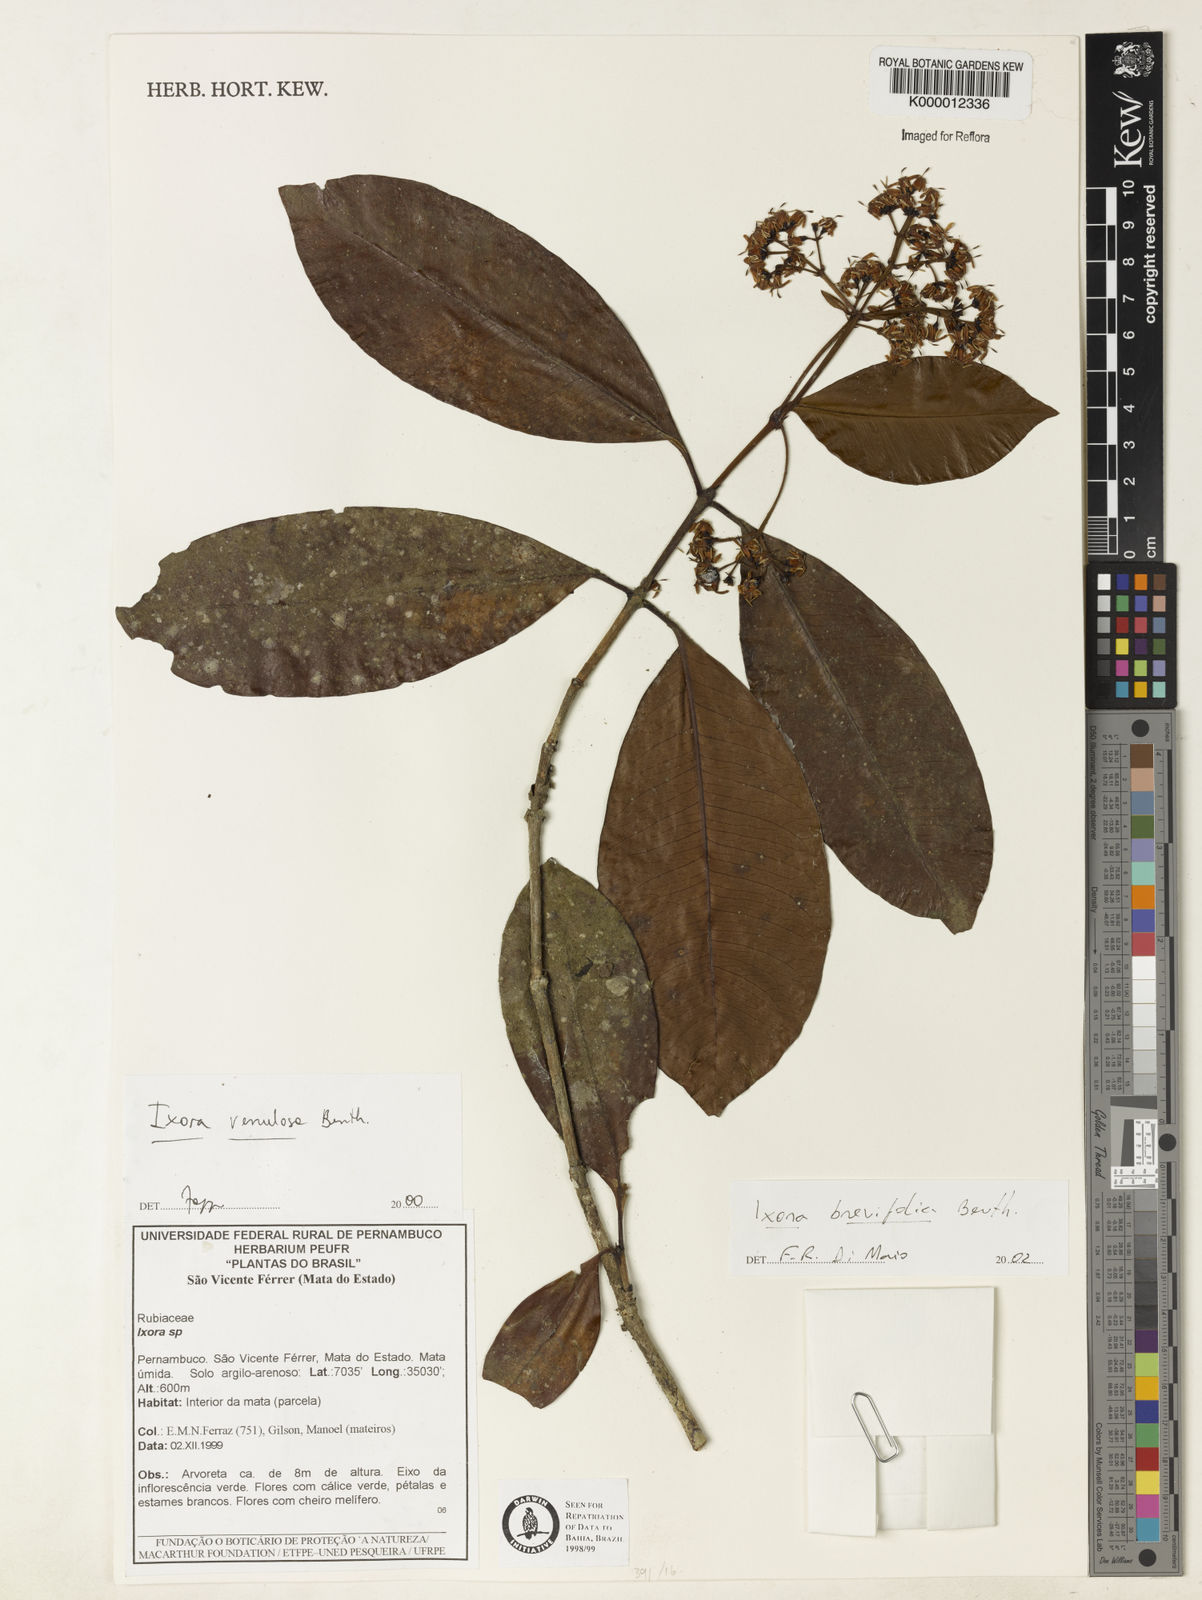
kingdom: Plantae
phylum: Tracheophyta
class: Magnoliopsida
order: Gentianales
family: Rubiaceae
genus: Ixora
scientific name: Ixora guineensis
